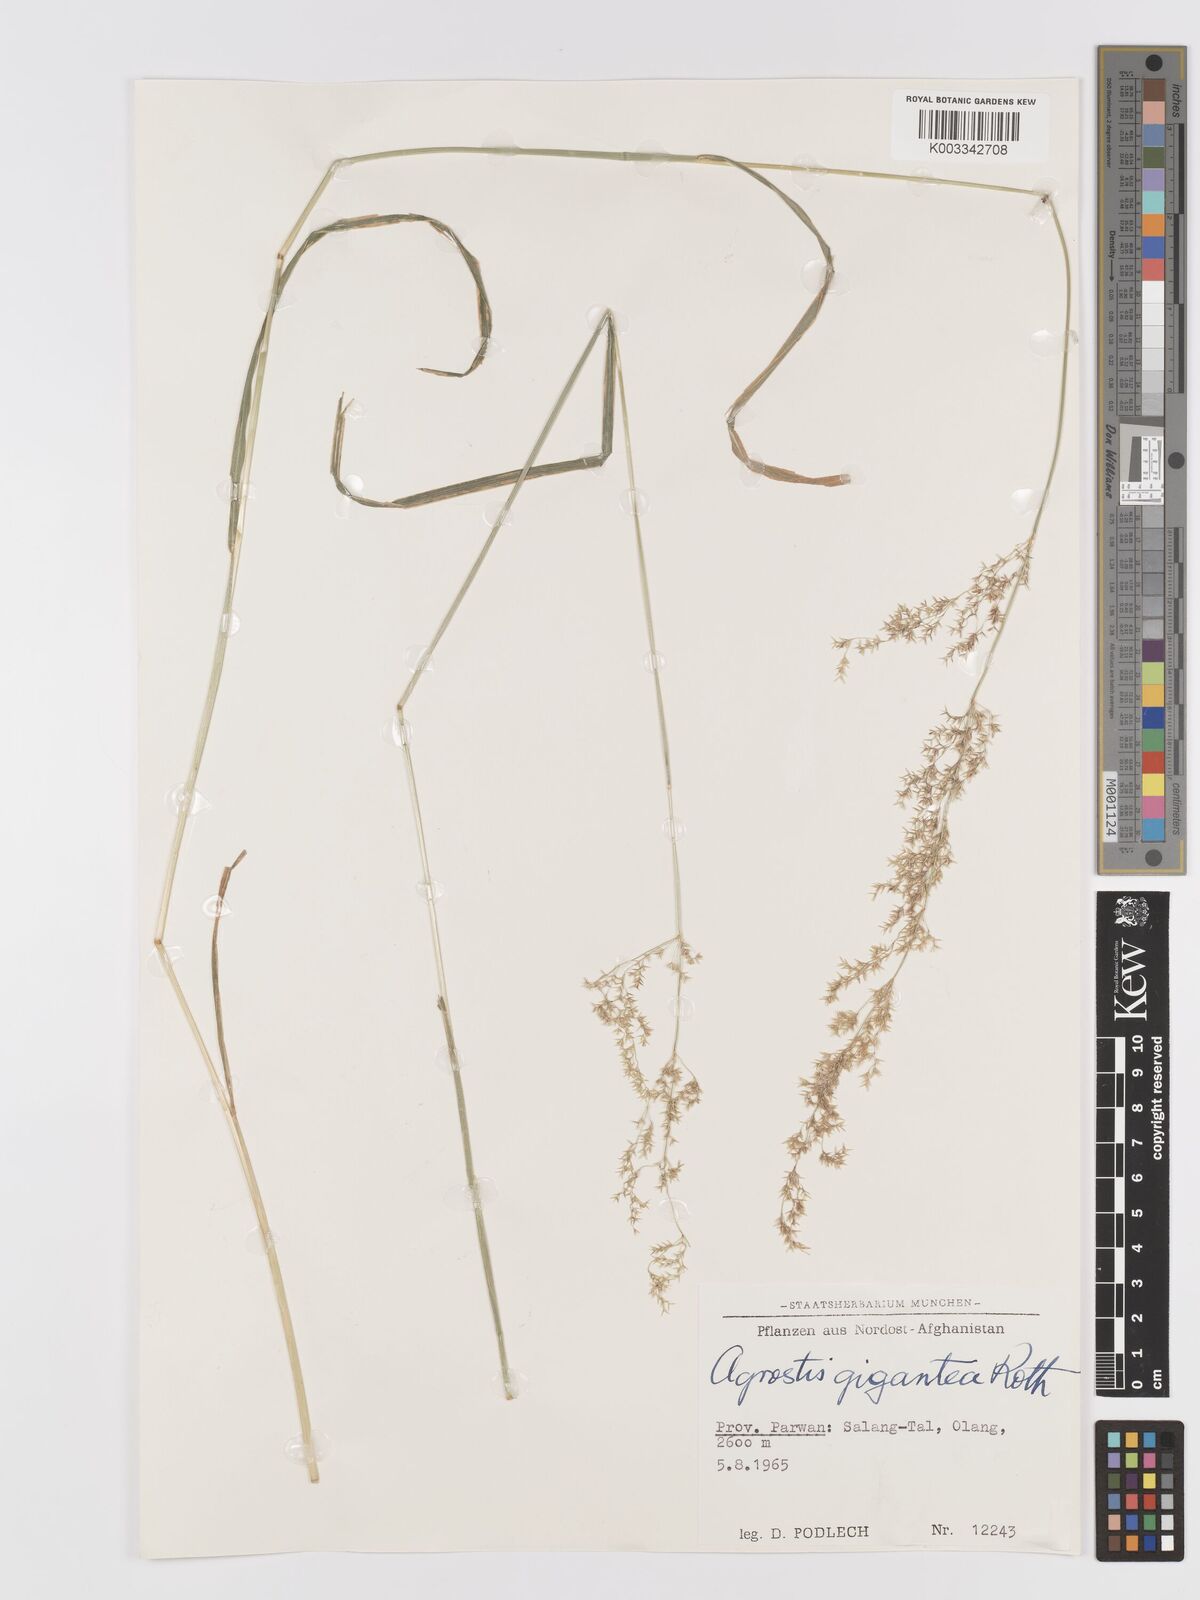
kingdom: Plantae
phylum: Tracheophyta
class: Liliopsida
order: Poales
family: Poaceae
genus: Agrostis
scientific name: Agrostis gigantea
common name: Black bent
